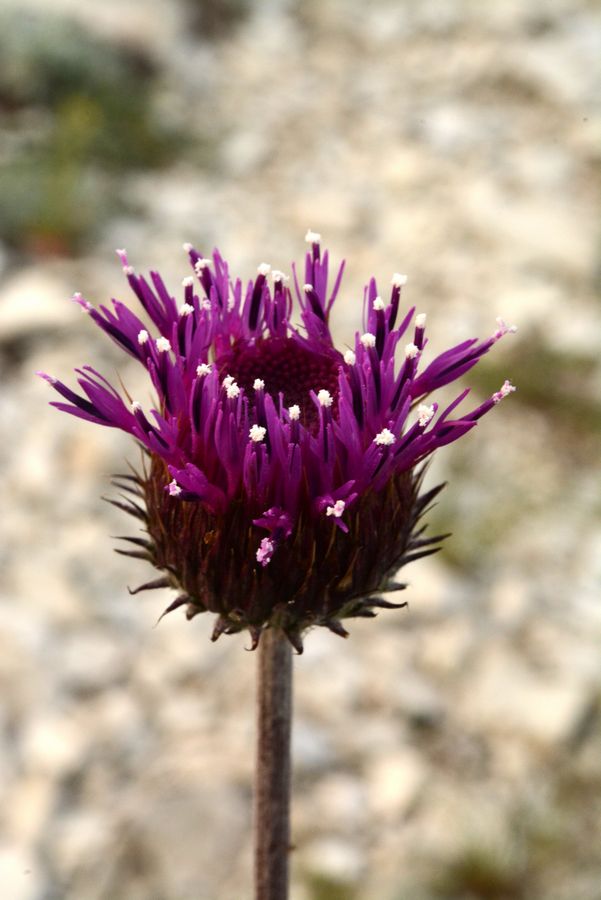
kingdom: Plantae
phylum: Tracheophyta
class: Magnoliopsida
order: Asterales
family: Asteraceae
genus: Jurinea
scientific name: Jurinea blanda
